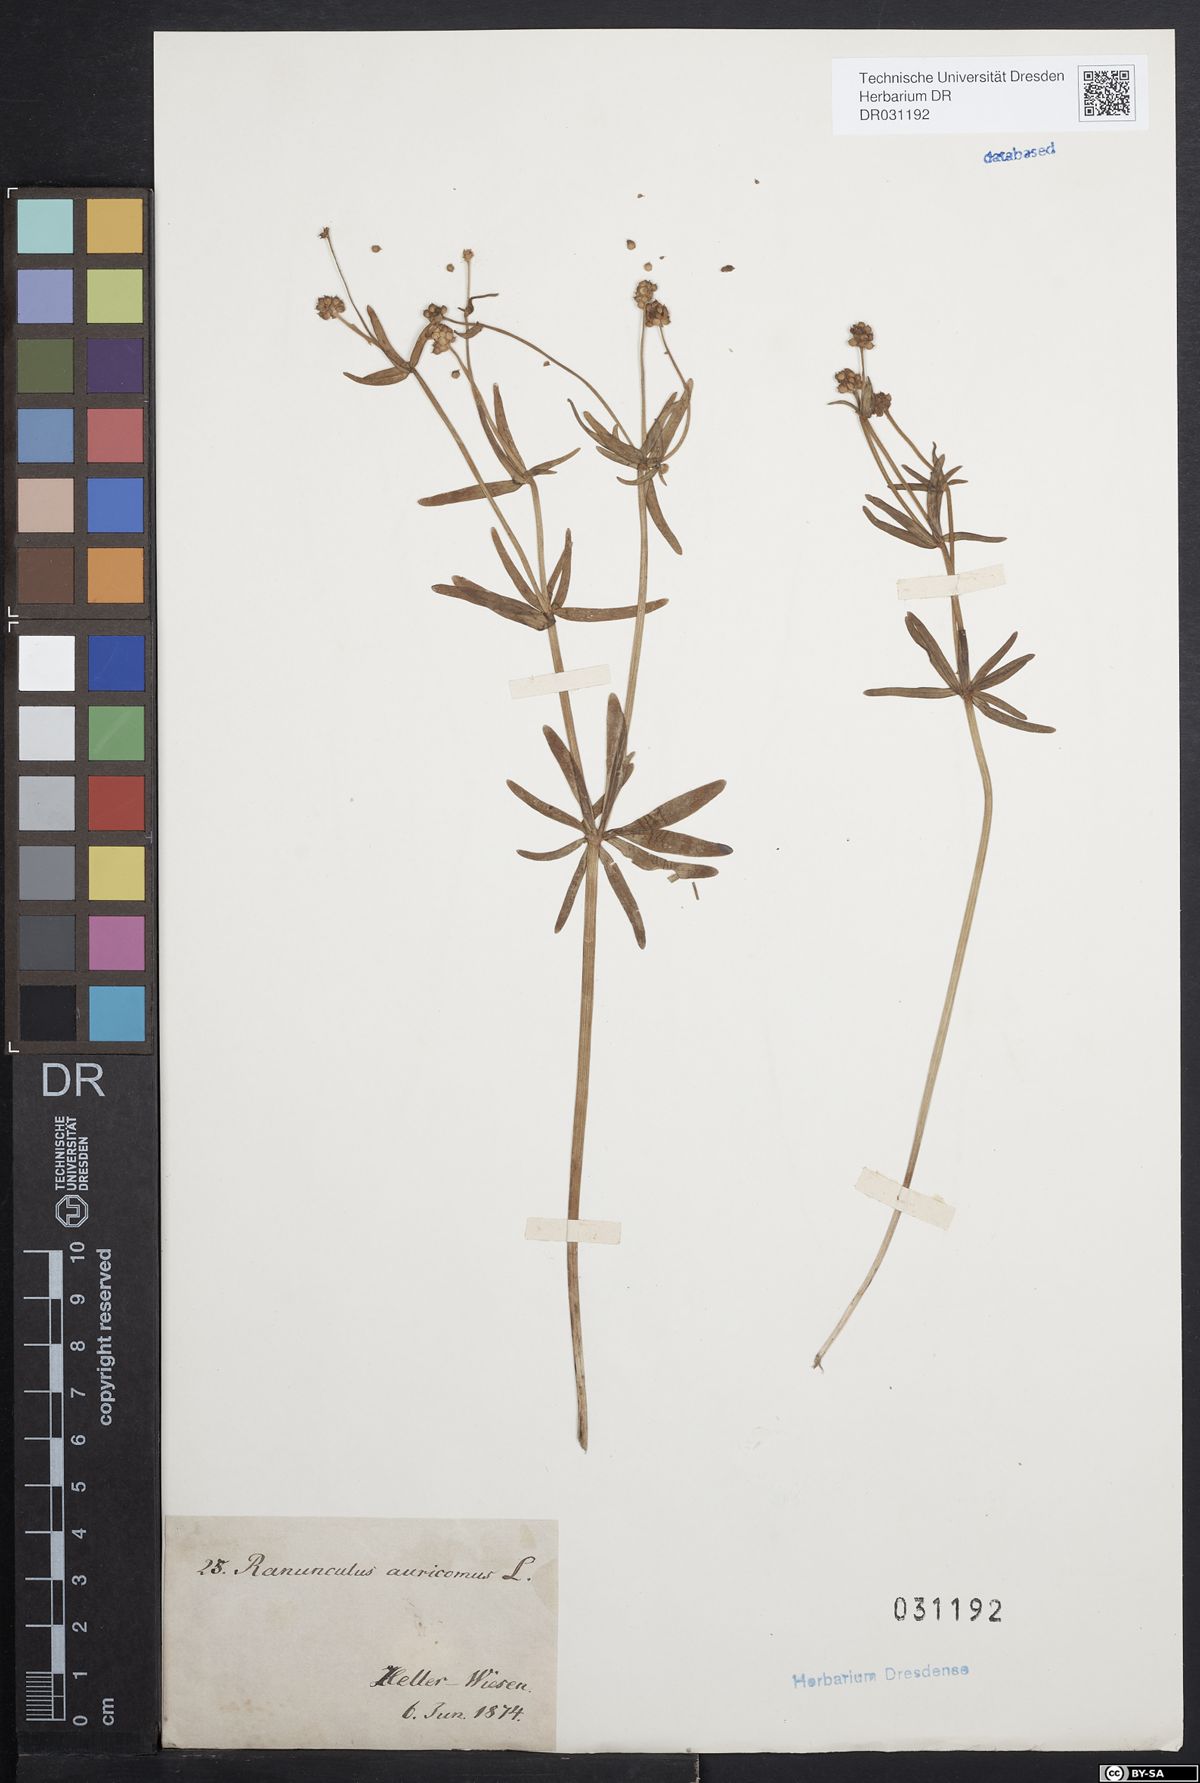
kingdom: Plantae
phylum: Tracheophyta
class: Magnoliopsida
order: Ranunculales
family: Ranunculaceae
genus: Ranunculus
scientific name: Ranunculus auricomus
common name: Goldilocks buttercup
